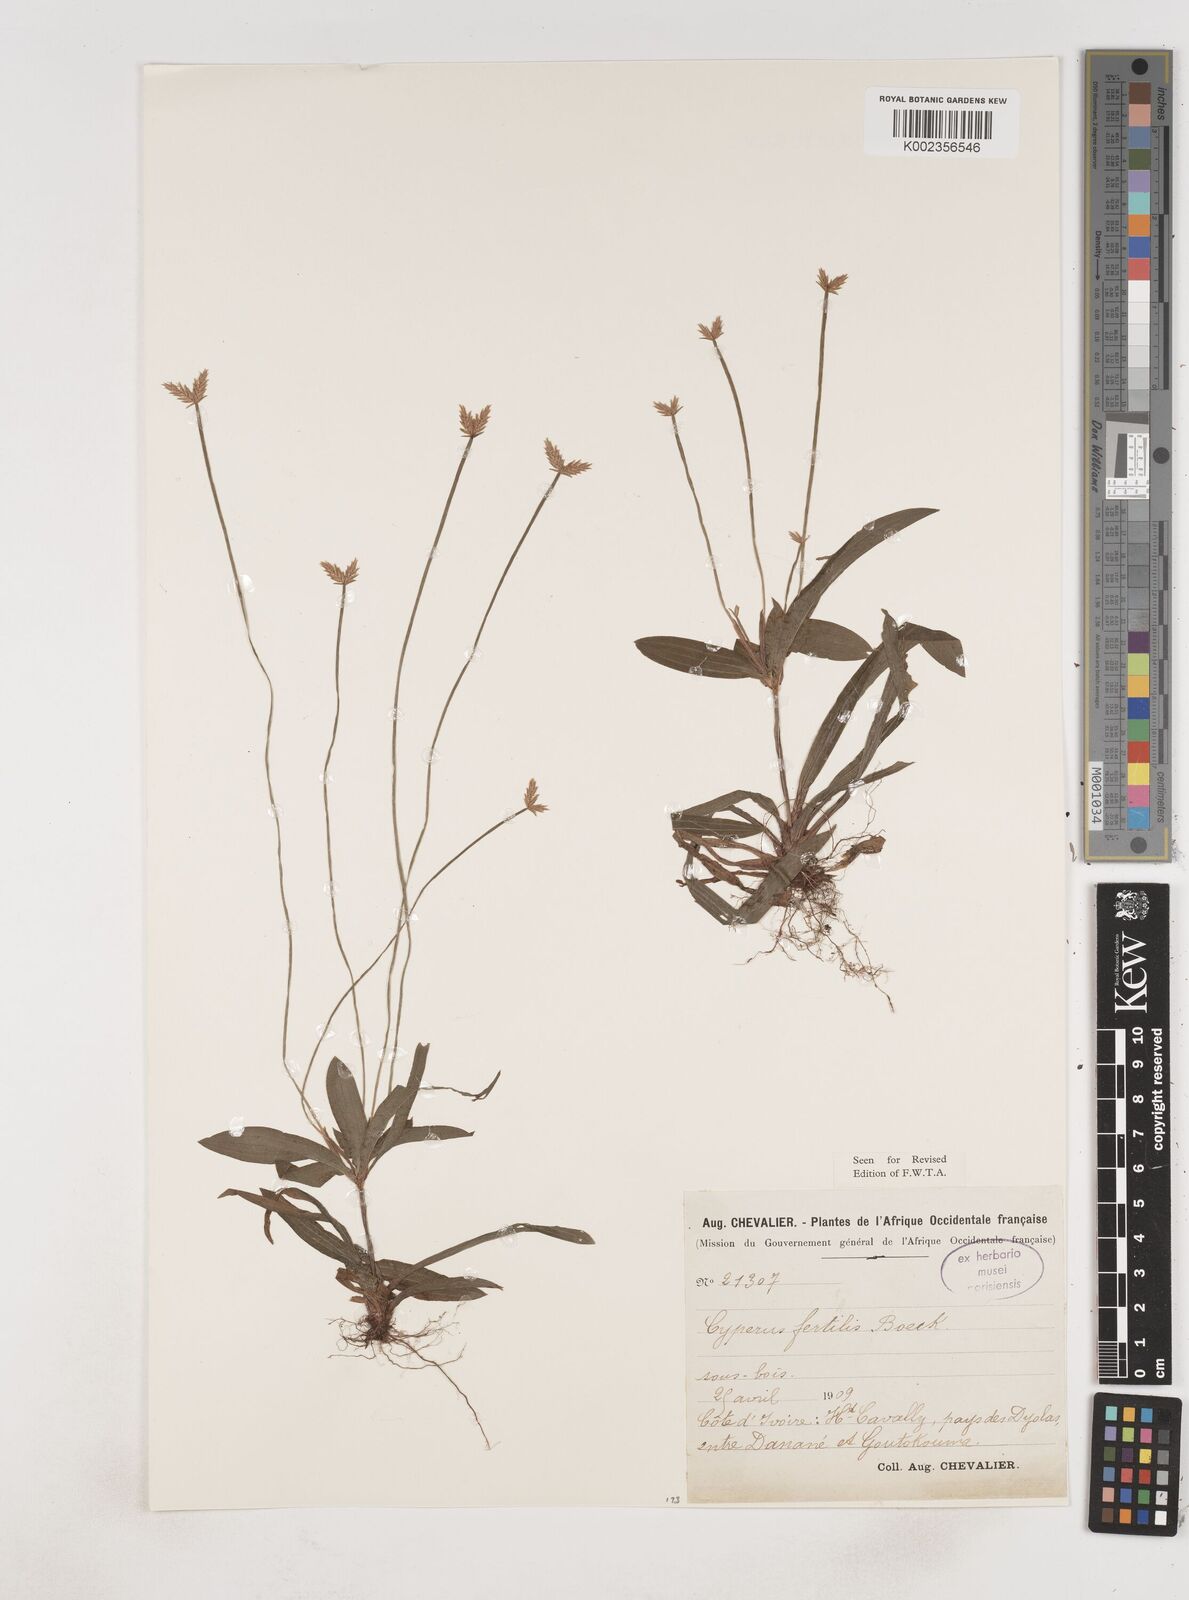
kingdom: Plantae
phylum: Tracheophyta
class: Liliopsida
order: Poales
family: Cyperaceae
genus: Cyperus
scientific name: Cyperus fertilis
